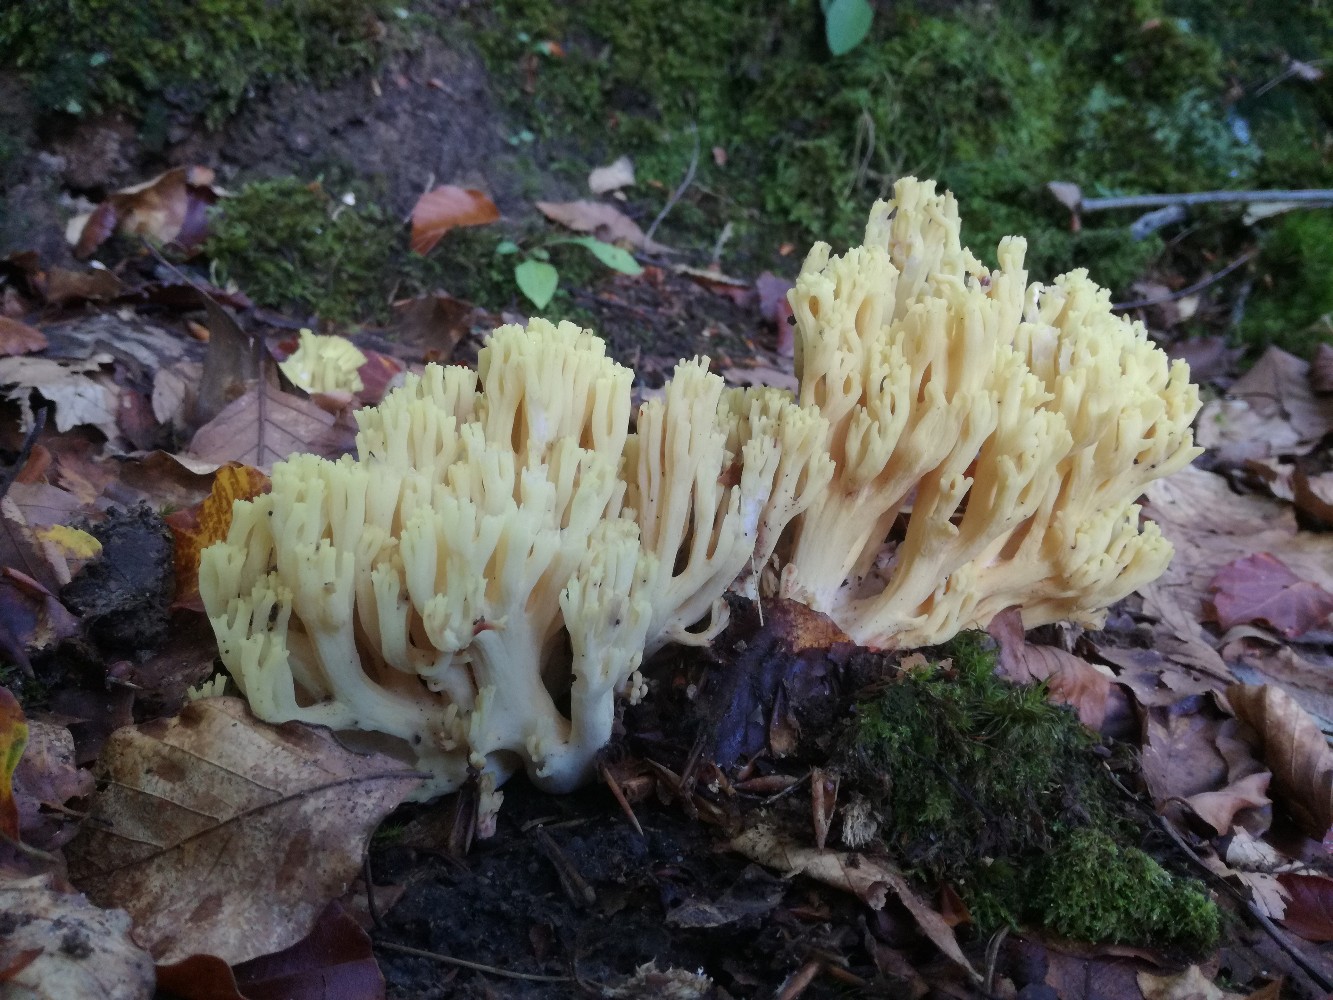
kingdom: Fungi
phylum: Basidiomycota
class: Agaricomycetes
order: Gomphales
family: Gomphaceae
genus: Ramaria
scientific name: Ramaria sanguinea
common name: blodplettet koralsvamp
